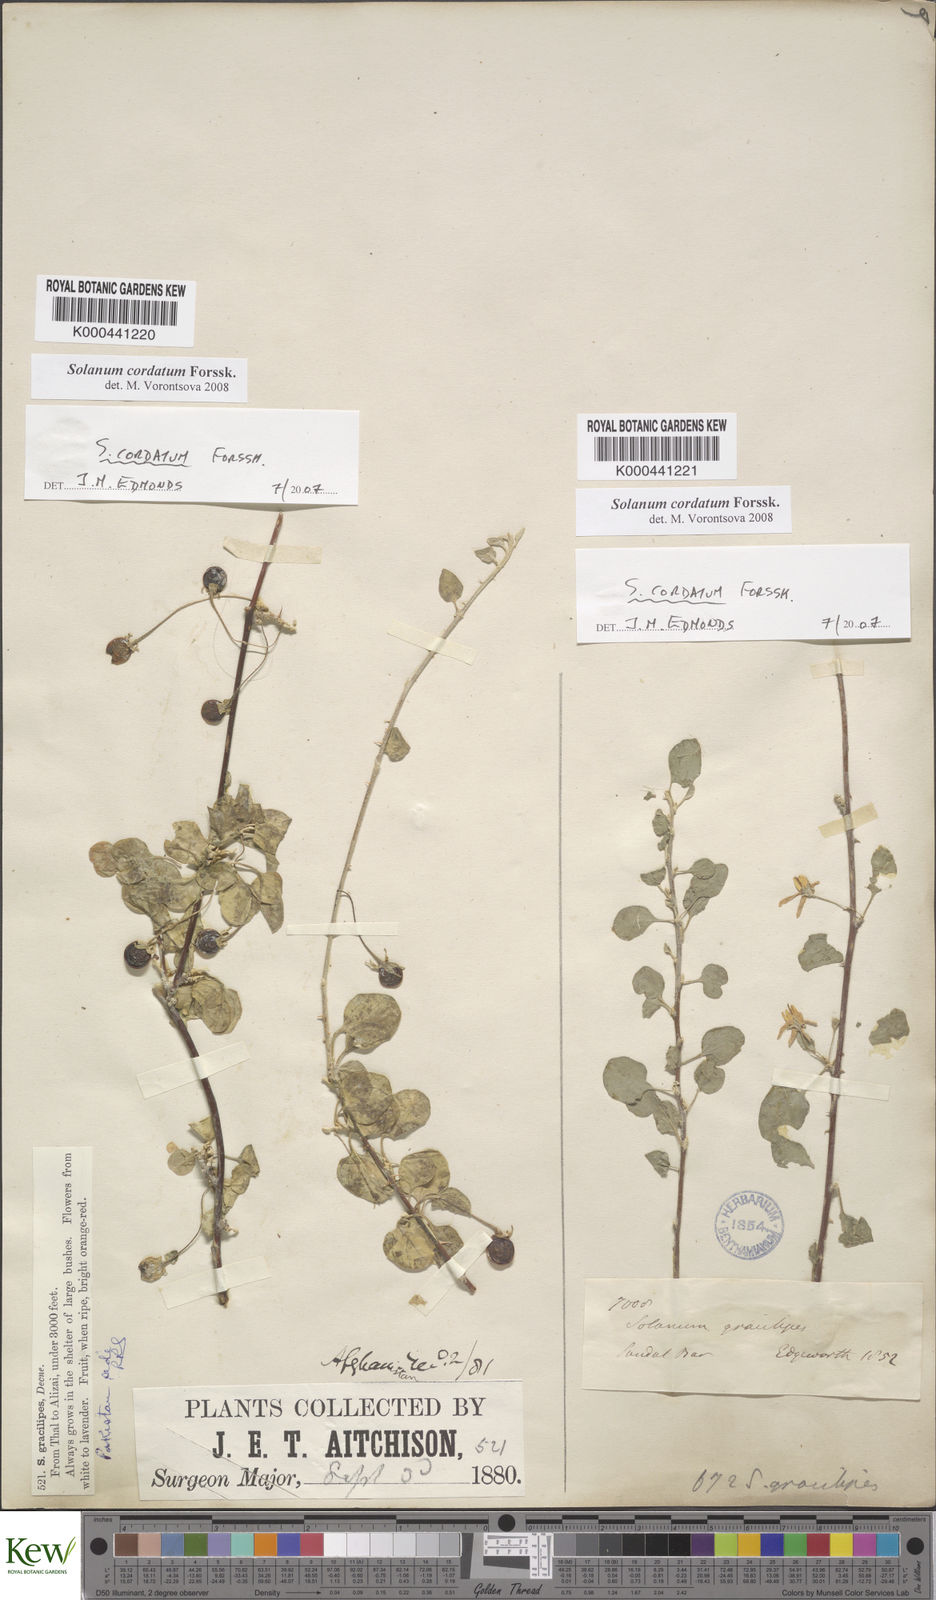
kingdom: Plantae
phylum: Tracheophyta
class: Magnoliopsida
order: Solanales
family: Solanaceae
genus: Solanum
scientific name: Solanum cordatum
